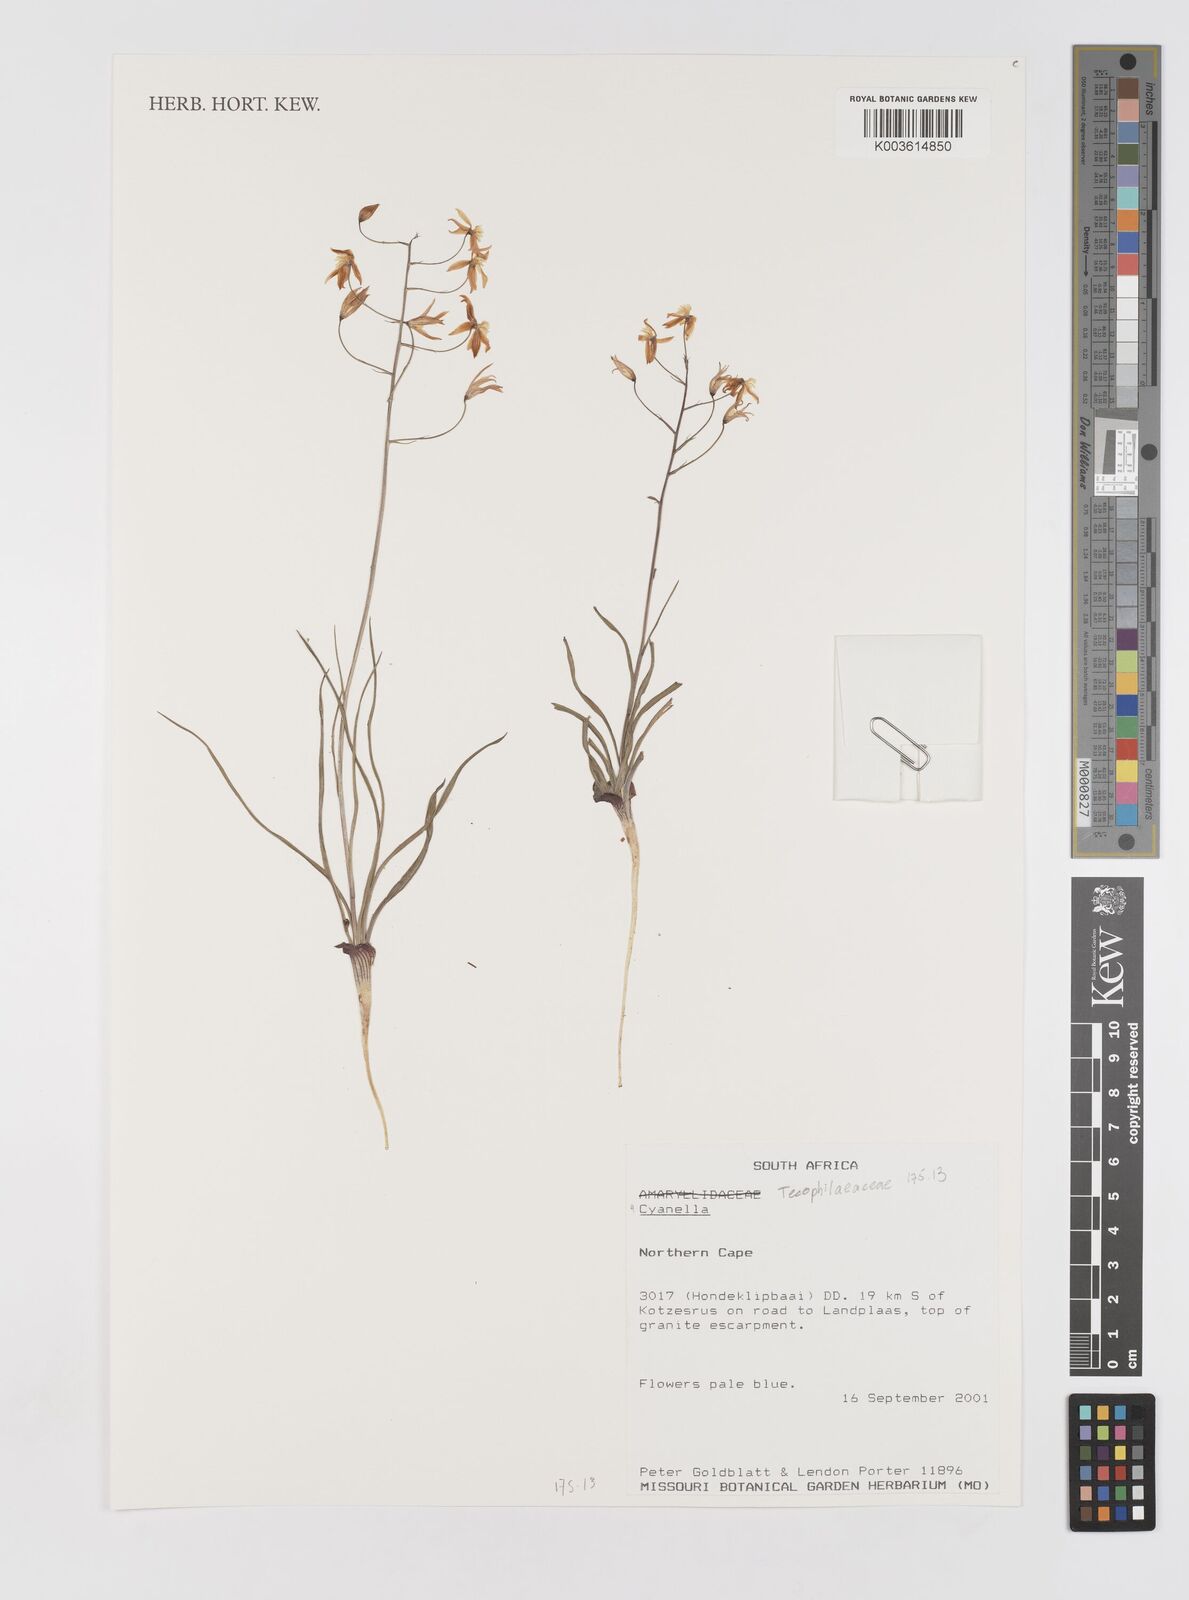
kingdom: Plantae
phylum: Tracheophyta
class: Liliopsida
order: Asparagales
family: Tecophilaeaceae
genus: Cyanella
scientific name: Cyanella
